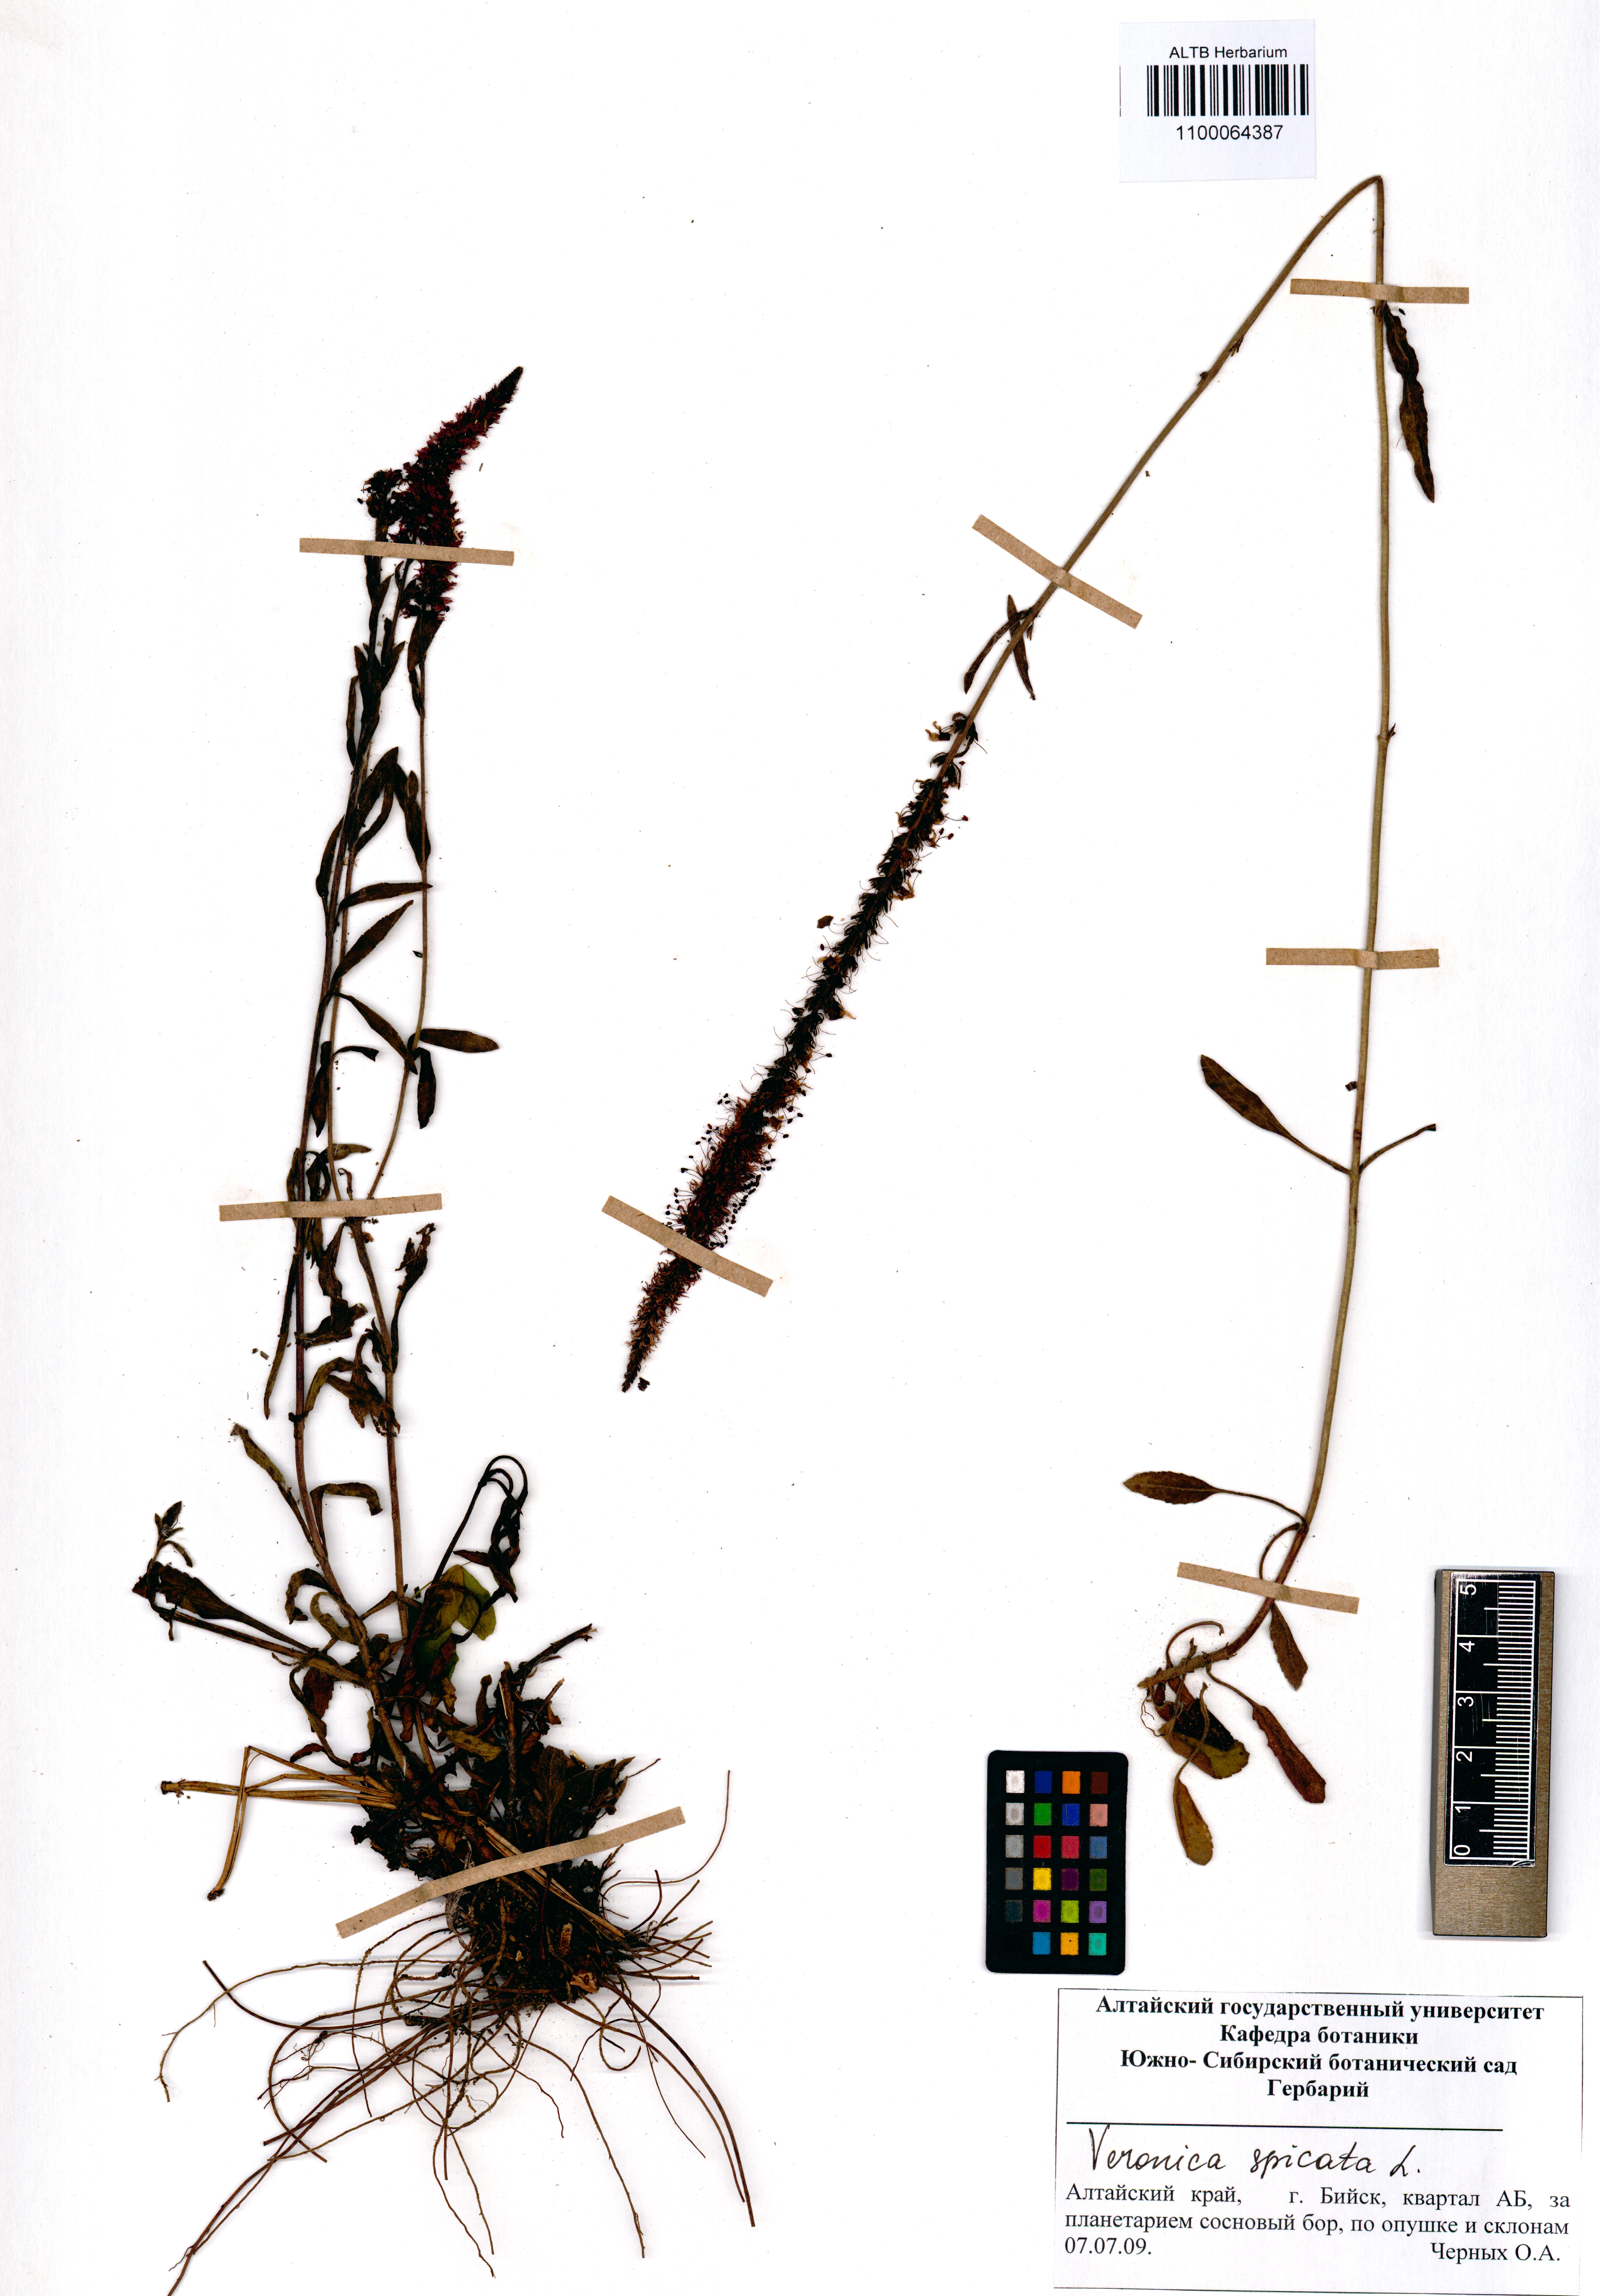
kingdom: Plantae
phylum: Tracheophyta
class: Magnoliopsida
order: Lamiales
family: Plantaginaceae
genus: Veronica
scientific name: Veronica spicata
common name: Spiked speedwell
